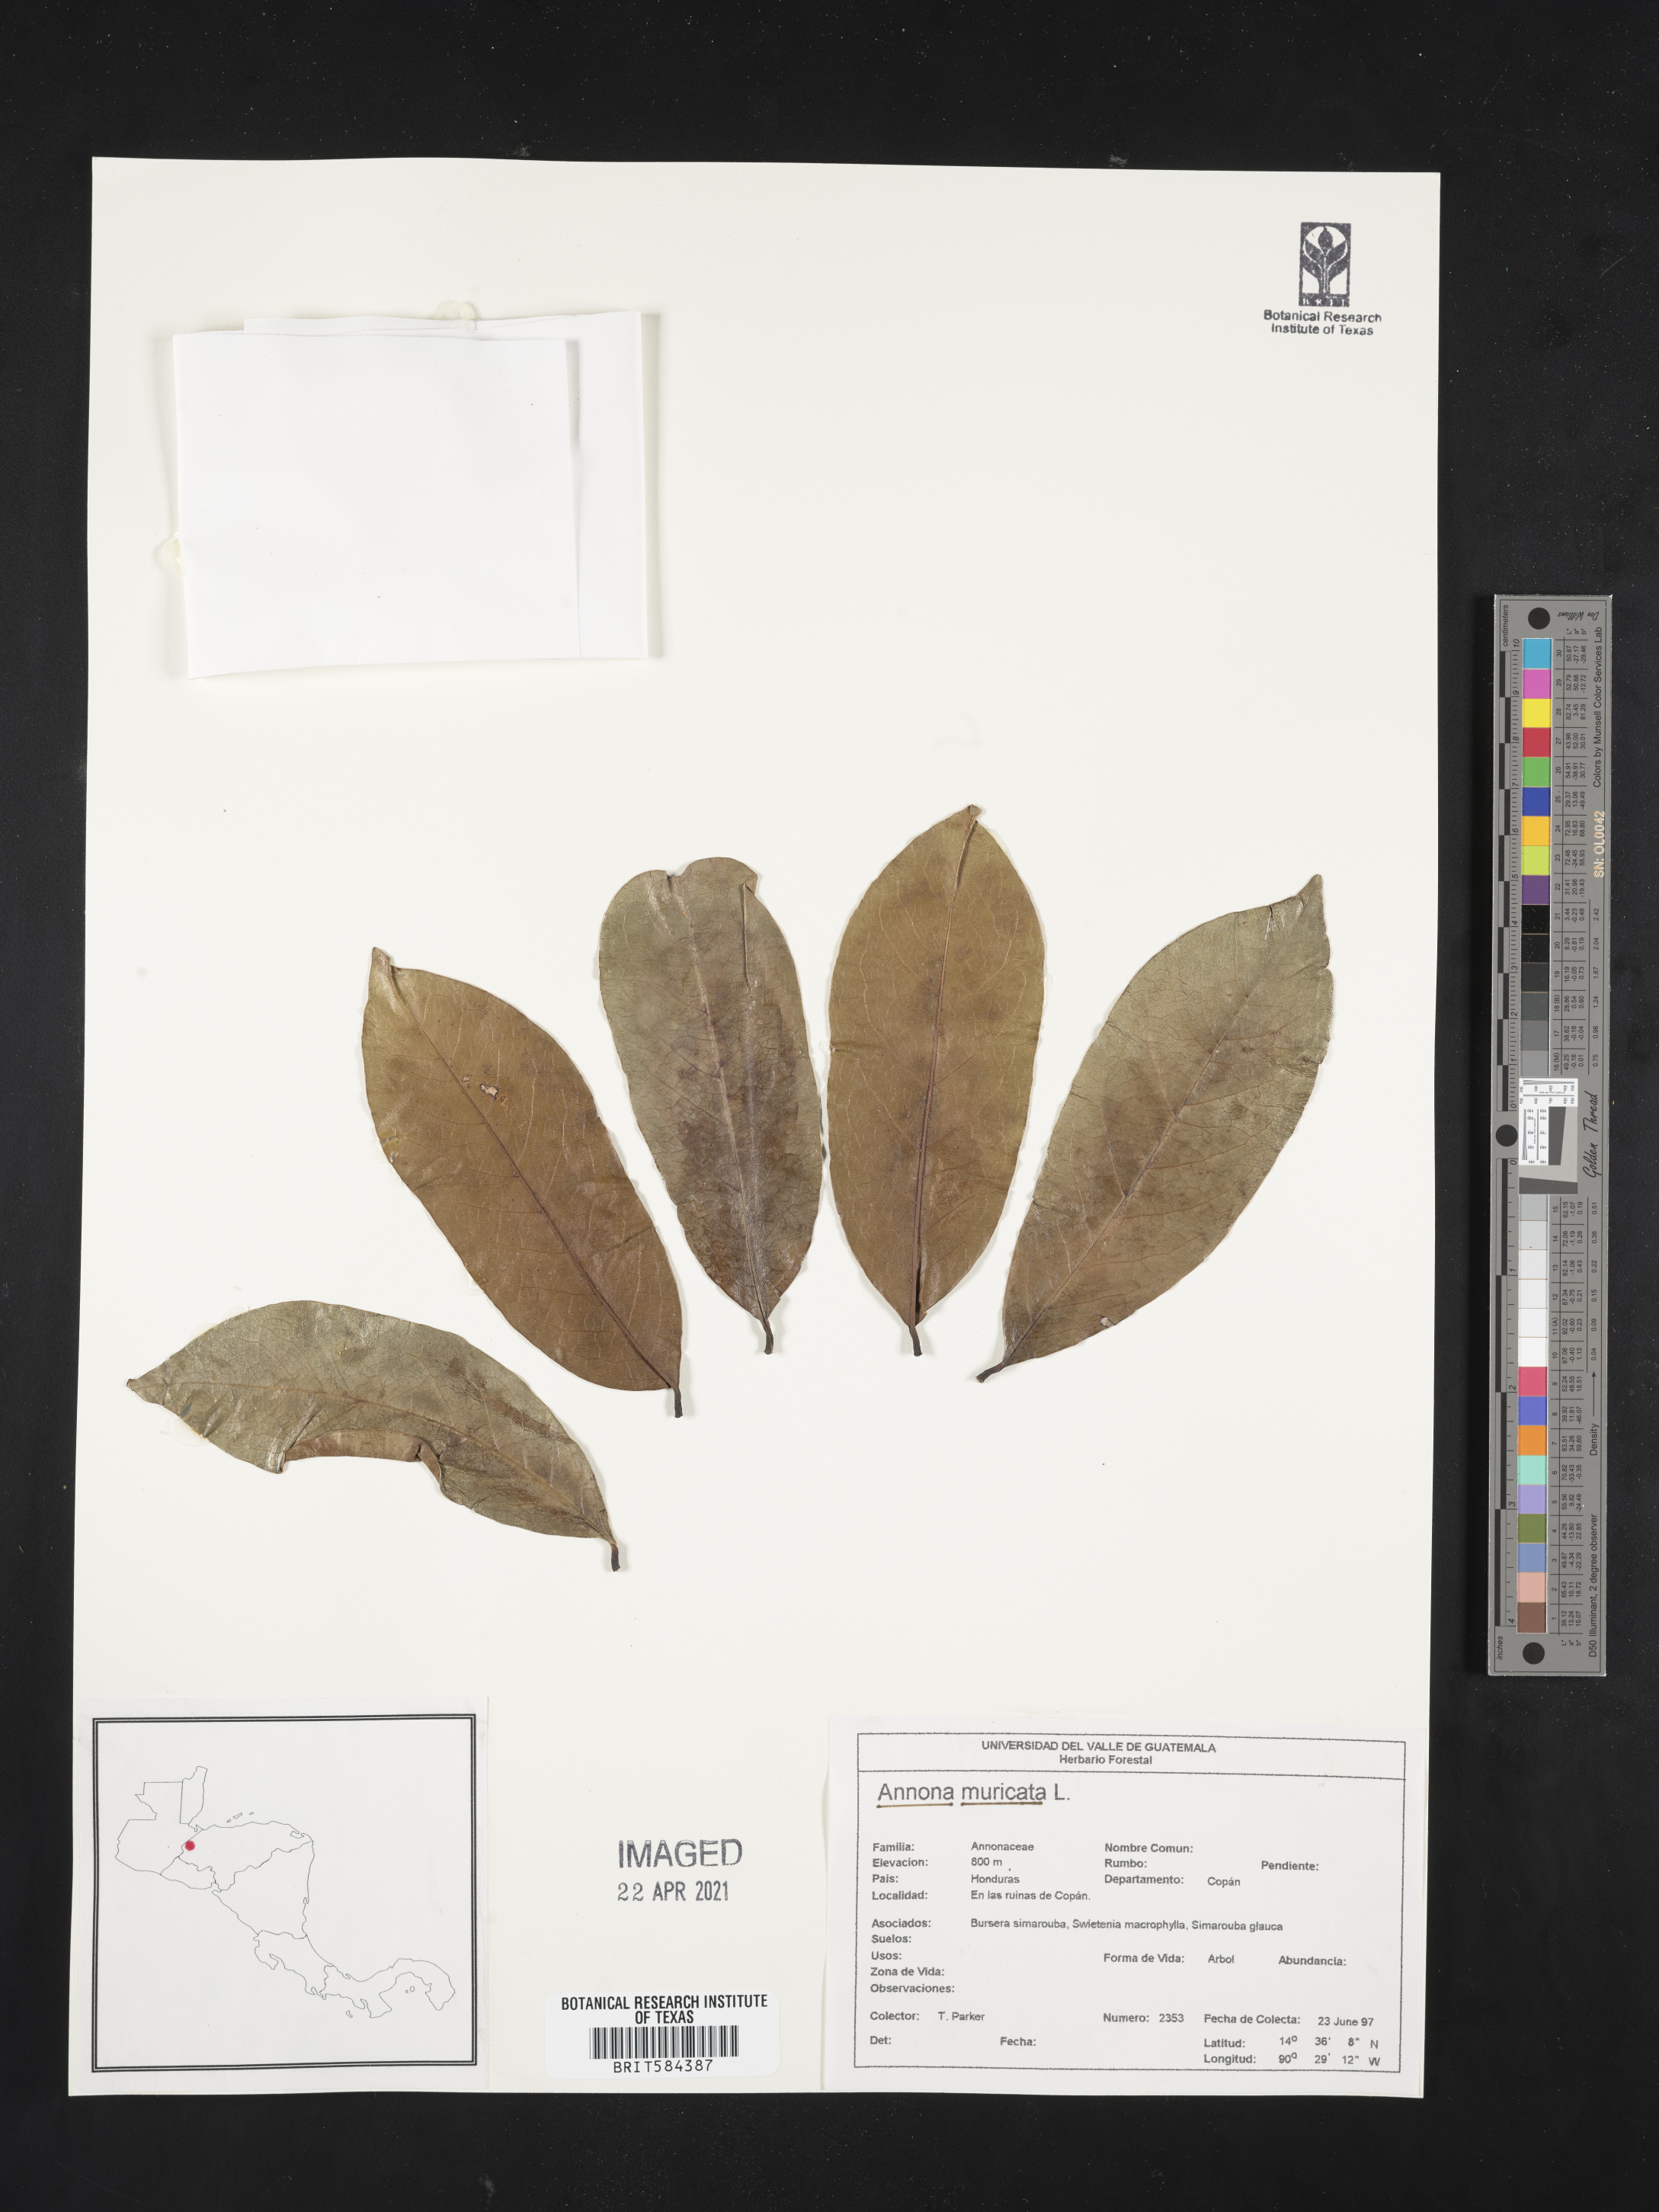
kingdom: Plantae
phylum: Tracheophyta
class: Magnoliopsida
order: Magnoliales
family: Annonaceae
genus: Annona
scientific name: Annona muricata
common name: Soursop
